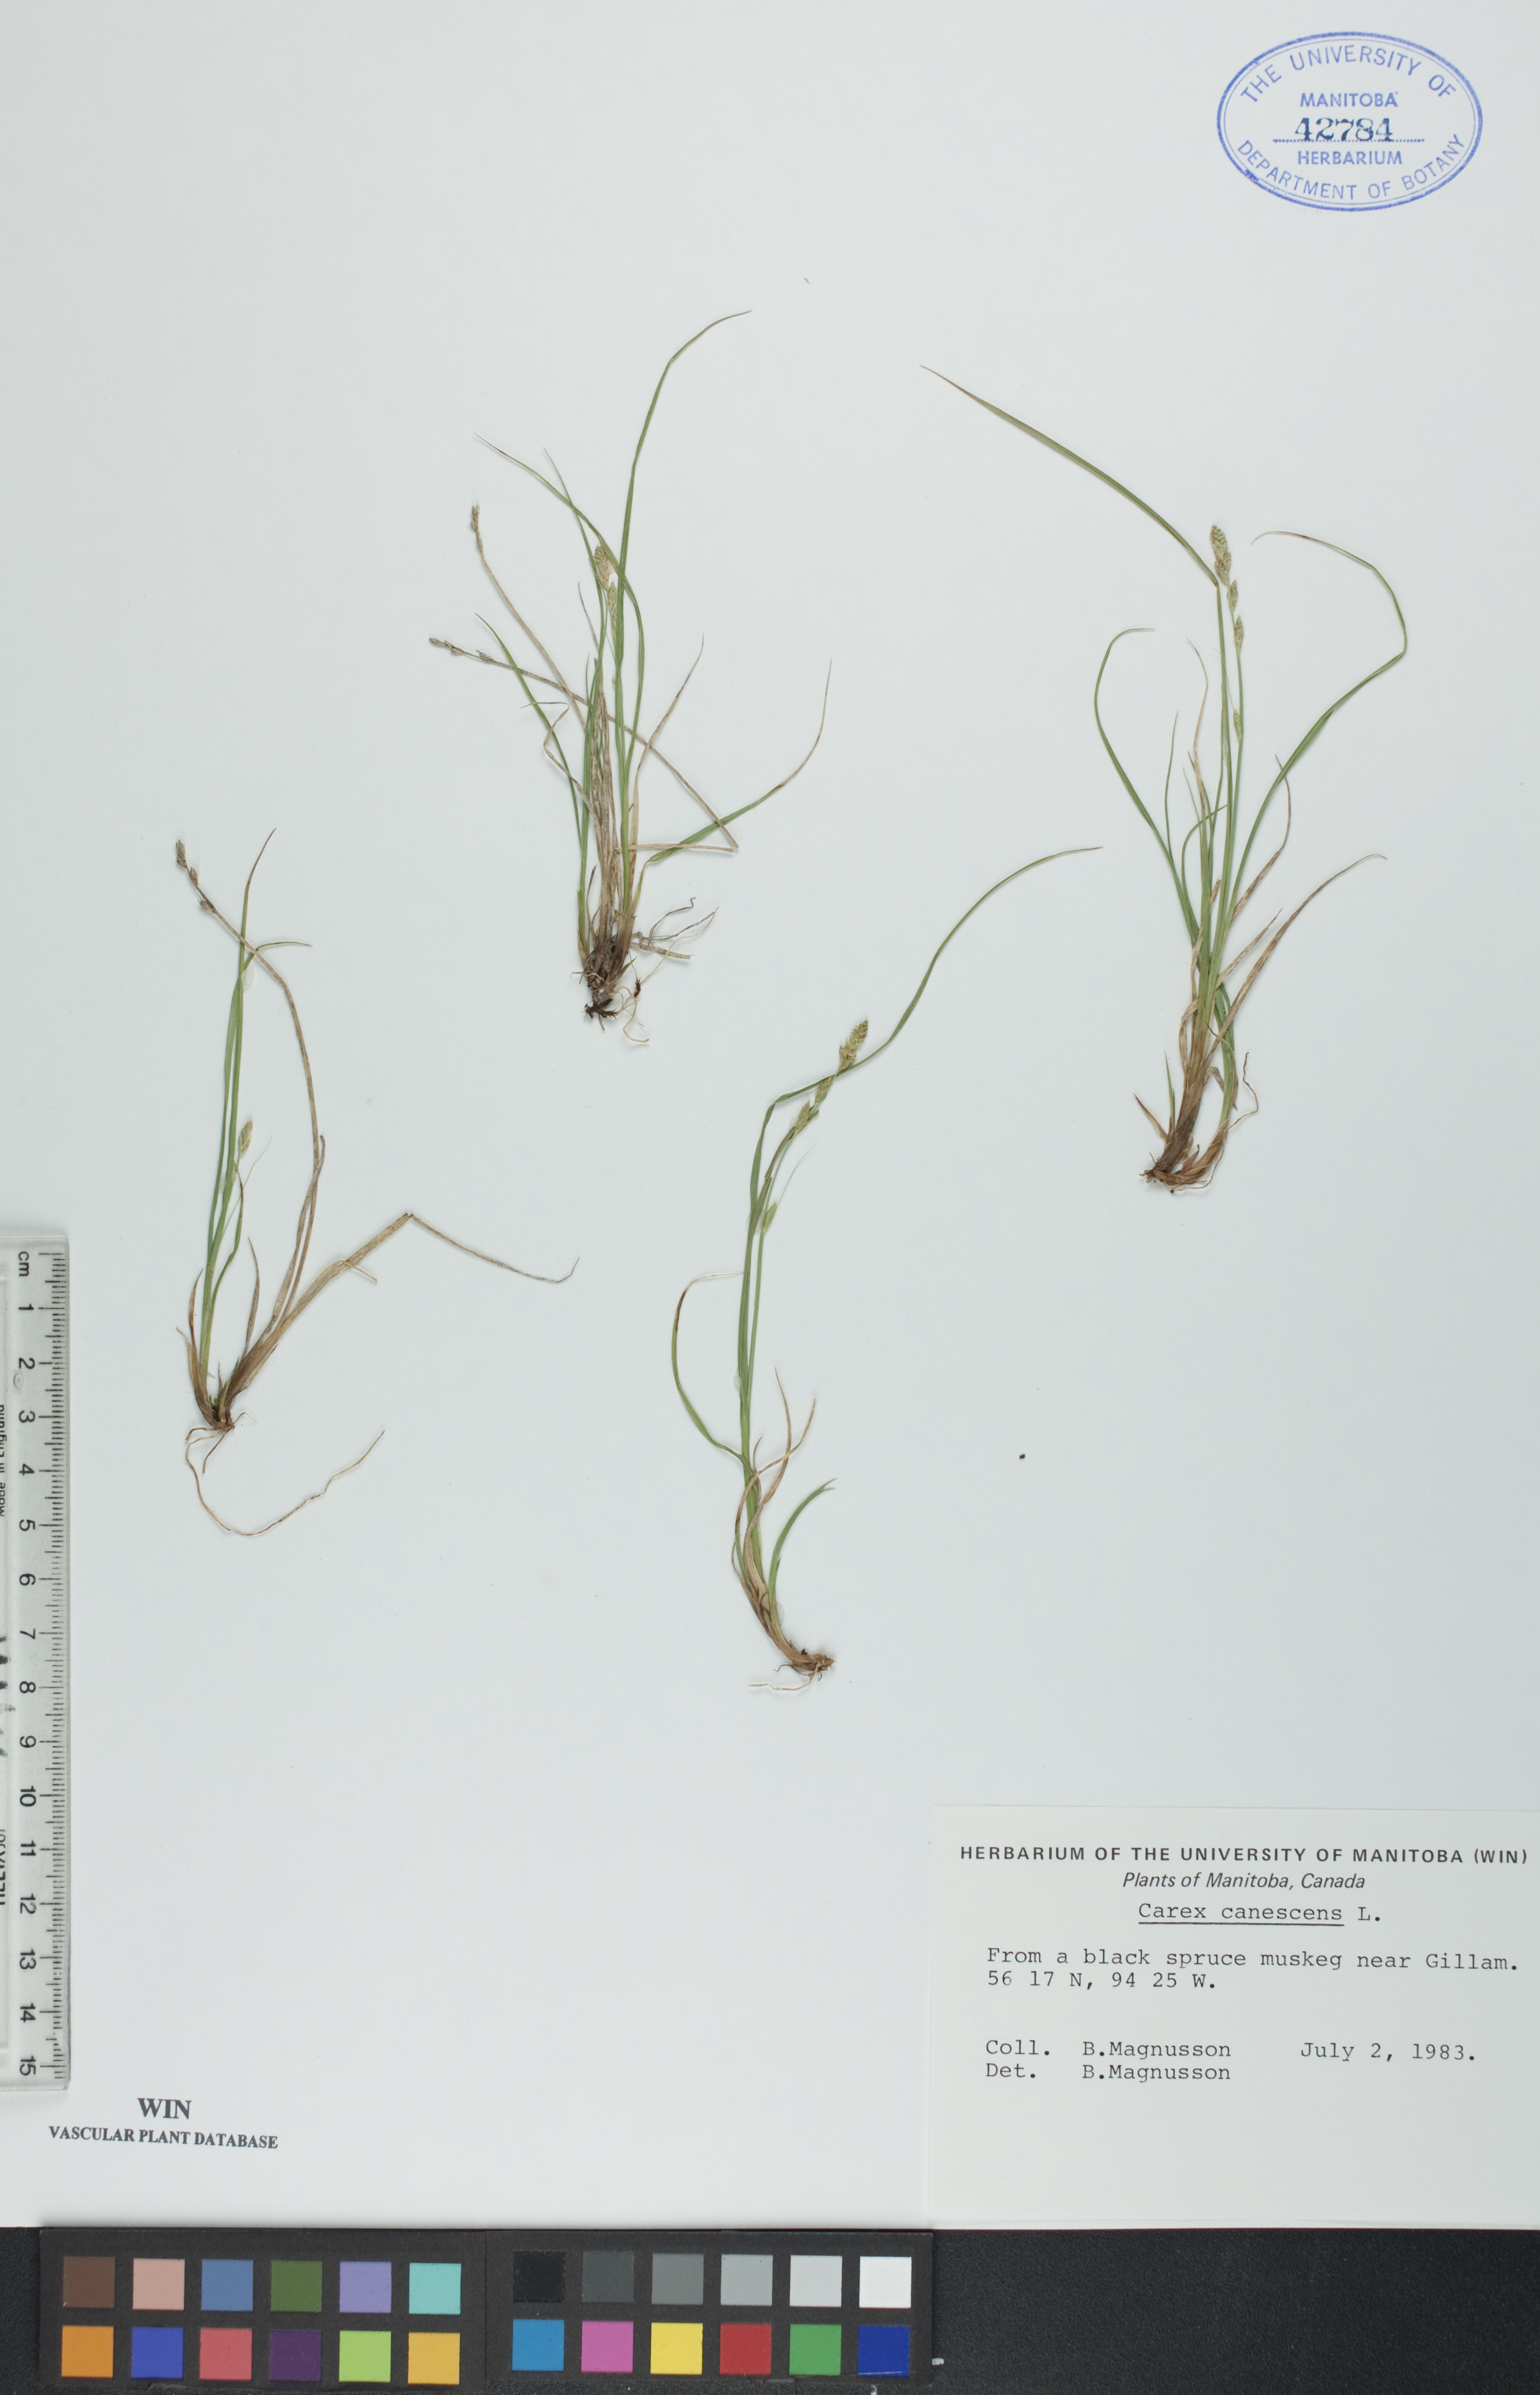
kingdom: Plantae
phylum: Tracheophyta
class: Liliopsida
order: Poales
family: Cyperaceae
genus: Carex
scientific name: Carex canescens
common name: White sedge
